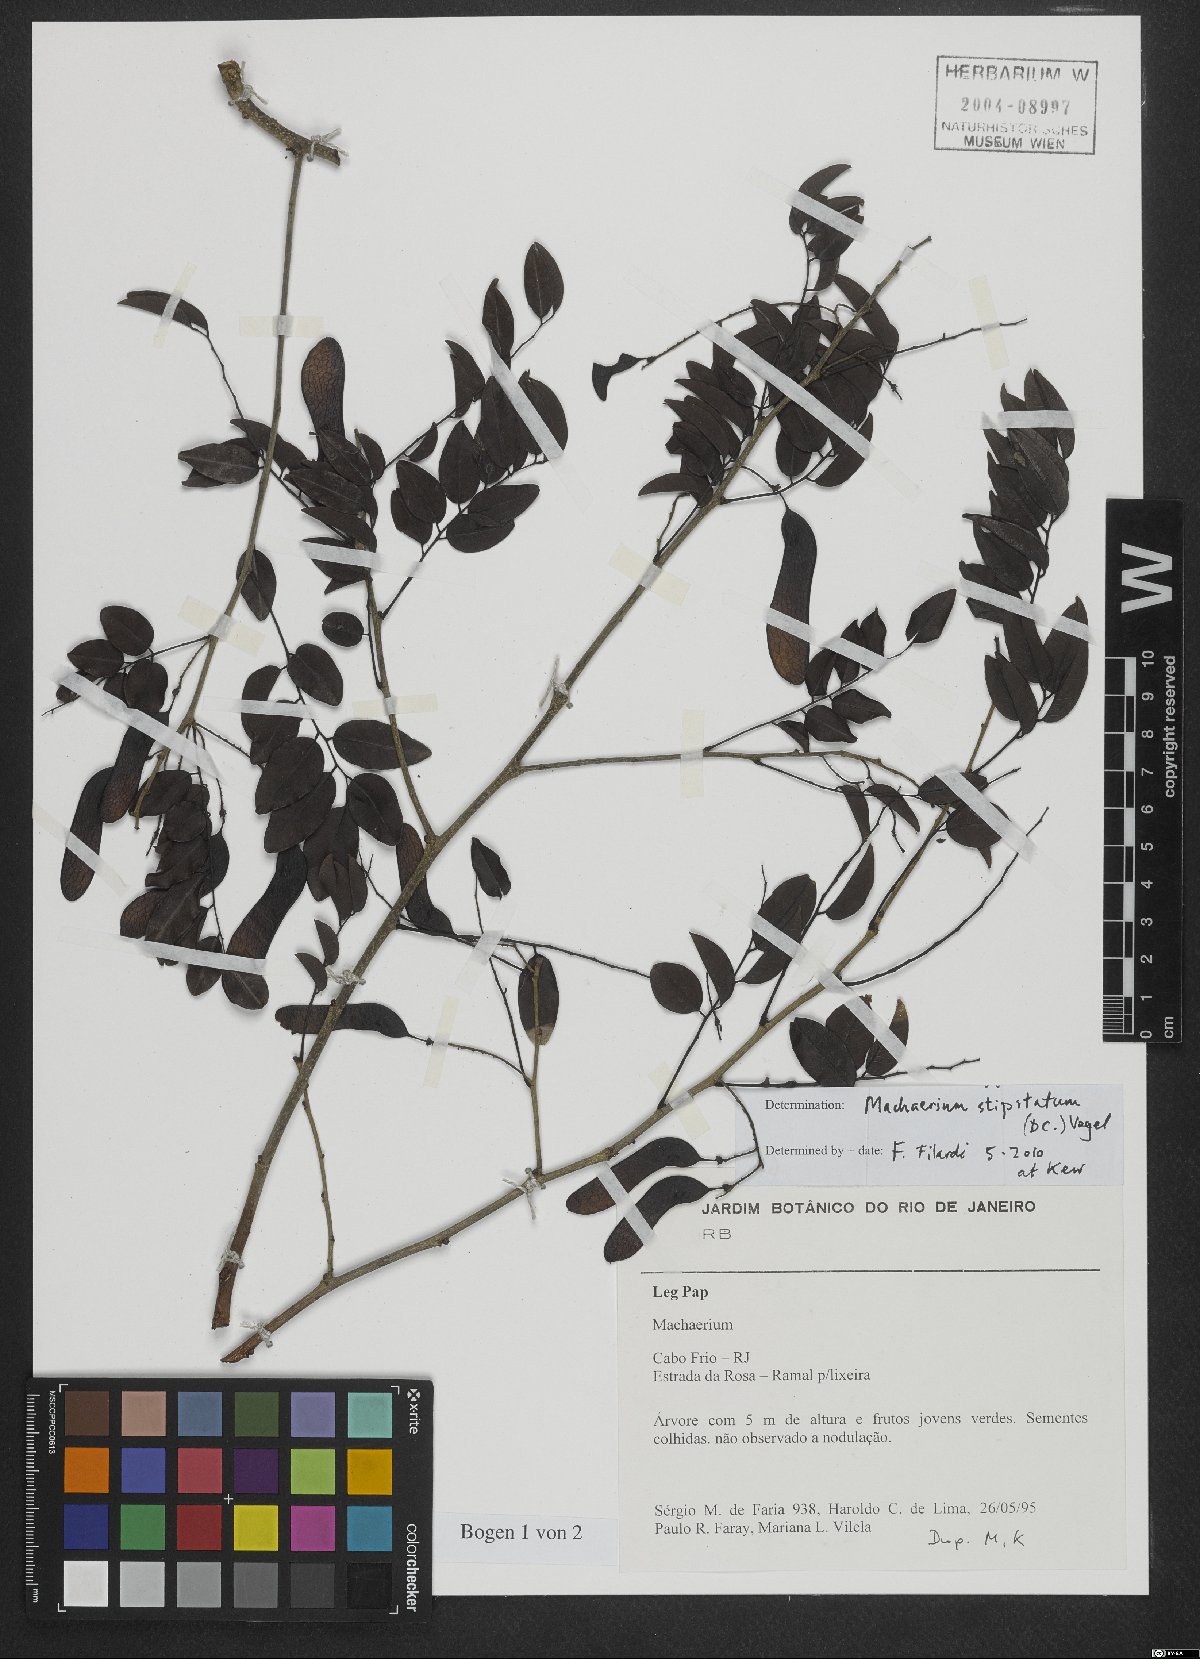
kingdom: Plantae
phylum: Tracheophyta
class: Magnoliopsida
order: Fabales
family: Fabaceae
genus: Machaerium
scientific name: Machaerium stipitatum
